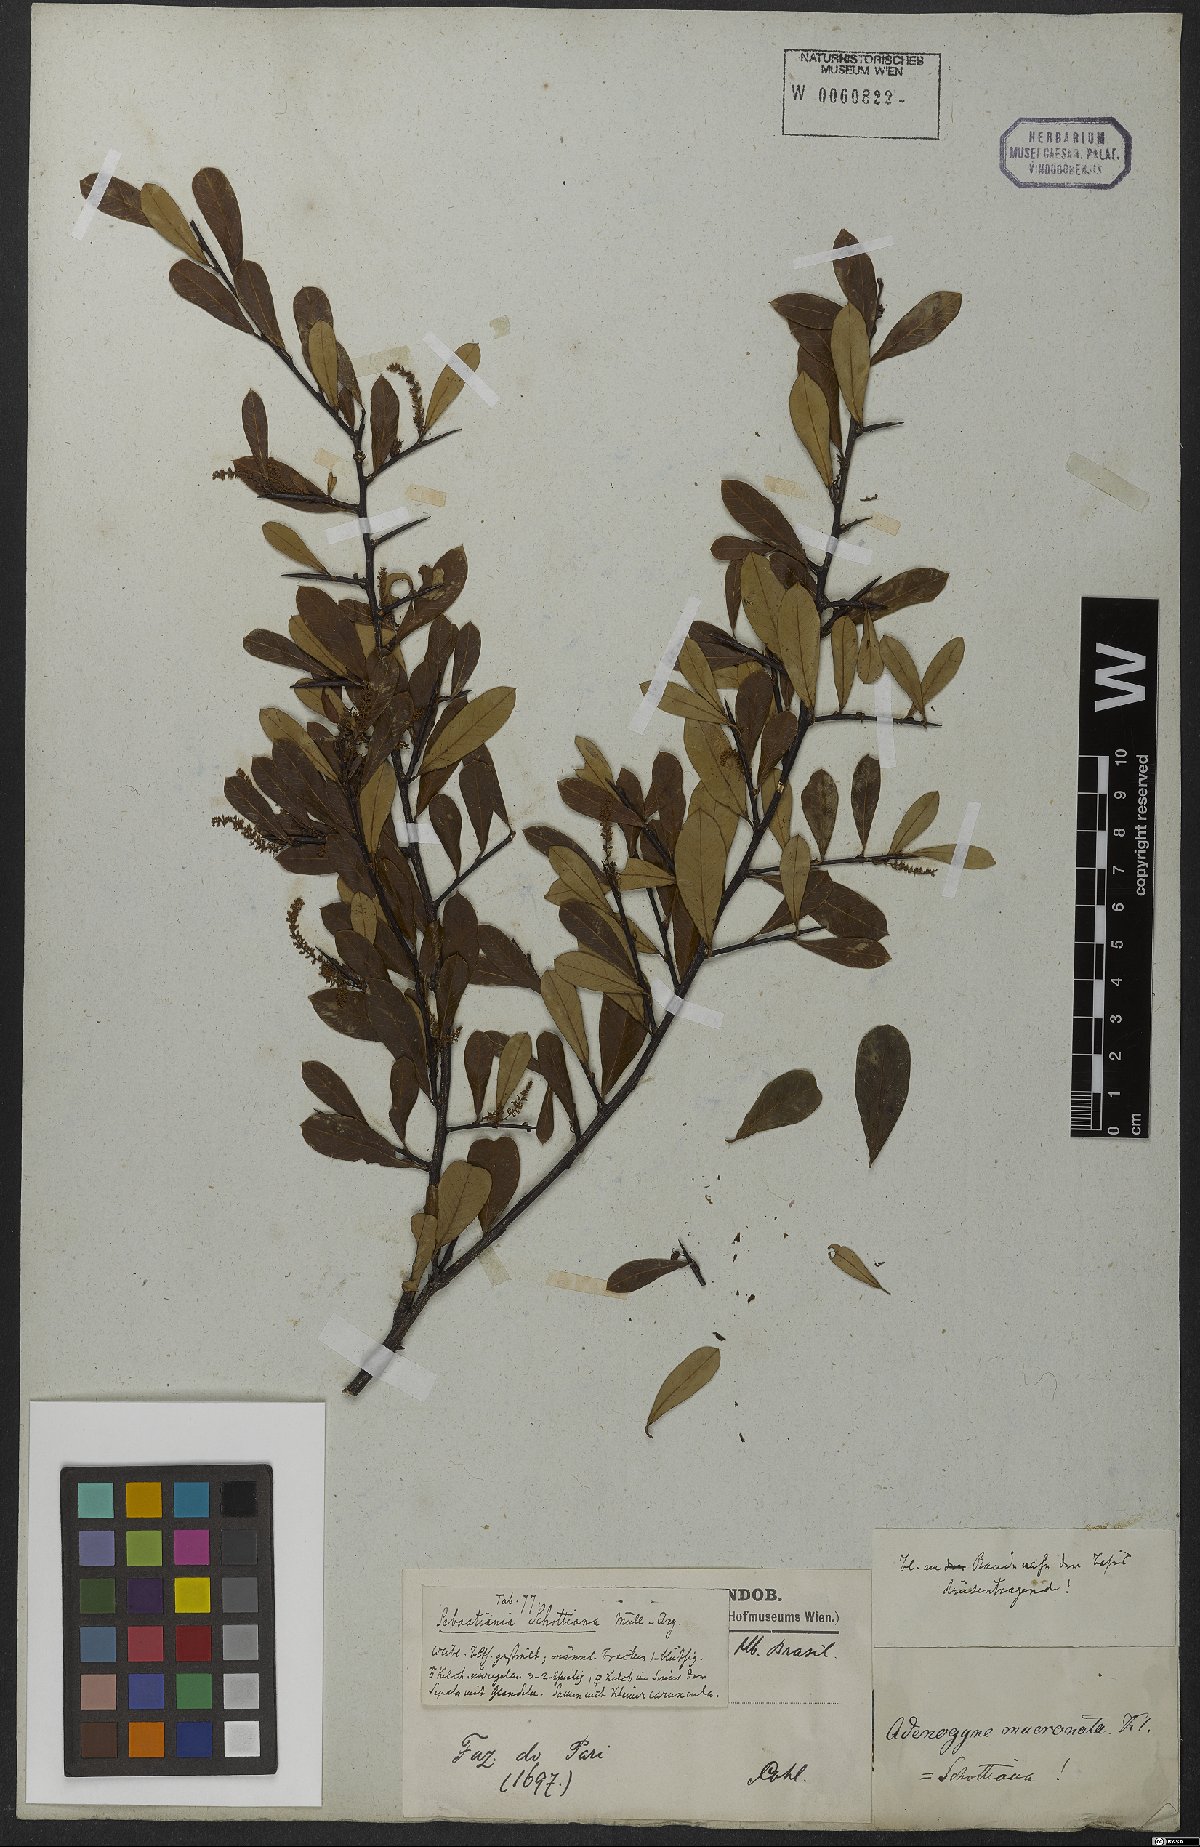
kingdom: Plantae
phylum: Tracheophyta
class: Magnoliopsida
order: Malpighiales
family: Euphorbiaceae
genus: Sebastiania
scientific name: Sebastiania schottiana
